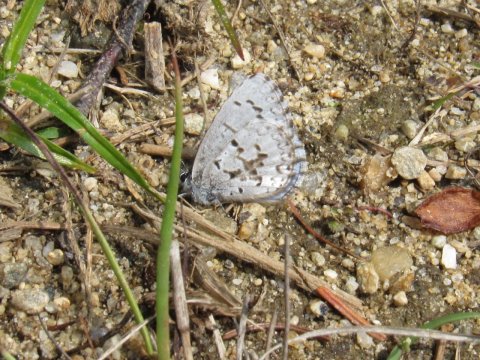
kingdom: Animalia
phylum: Arthropoda
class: Insecta
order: Lepidoptera
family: Lycaenidae
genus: Celastrina
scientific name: Celastrina lucia
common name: Northern Spring Azure
